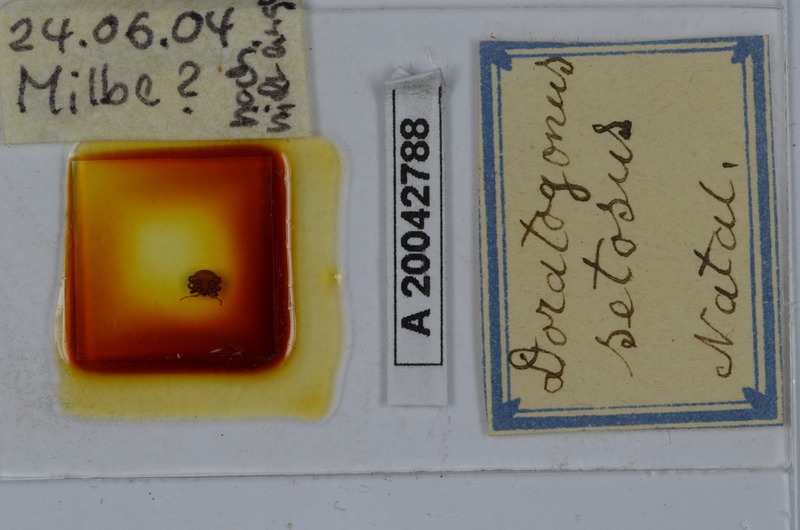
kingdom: Animalia
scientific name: Animalia
